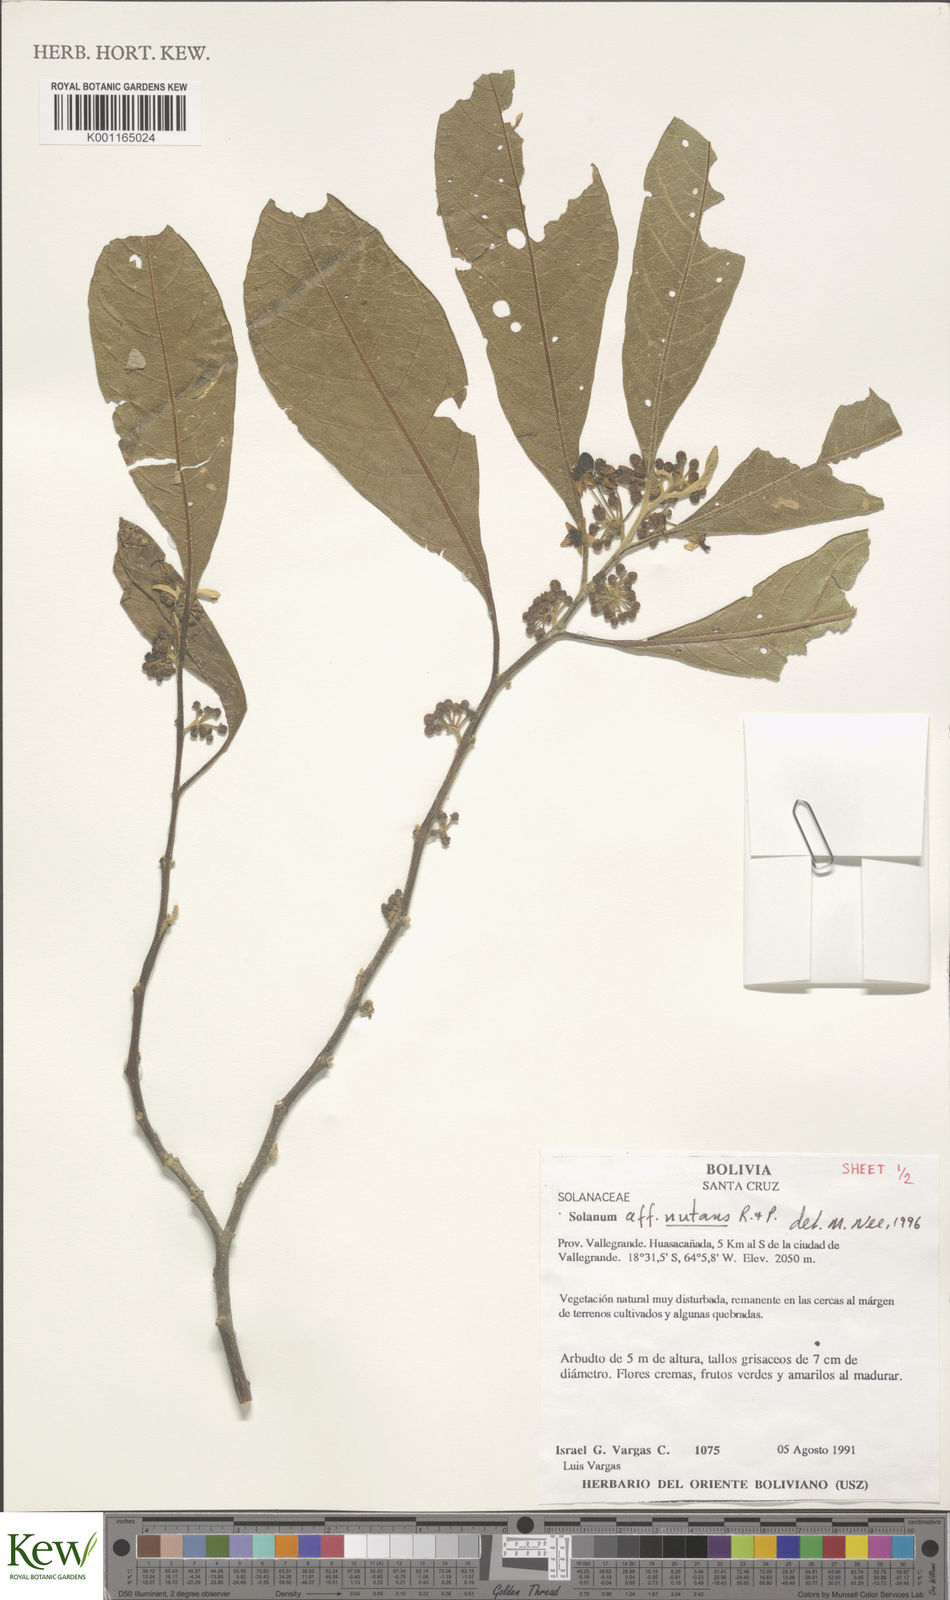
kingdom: Plantae
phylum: Tracheophyta
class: Magnoliopsida
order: Solanales
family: Solanaceae
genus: Solanum
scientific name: Solanum nutans
